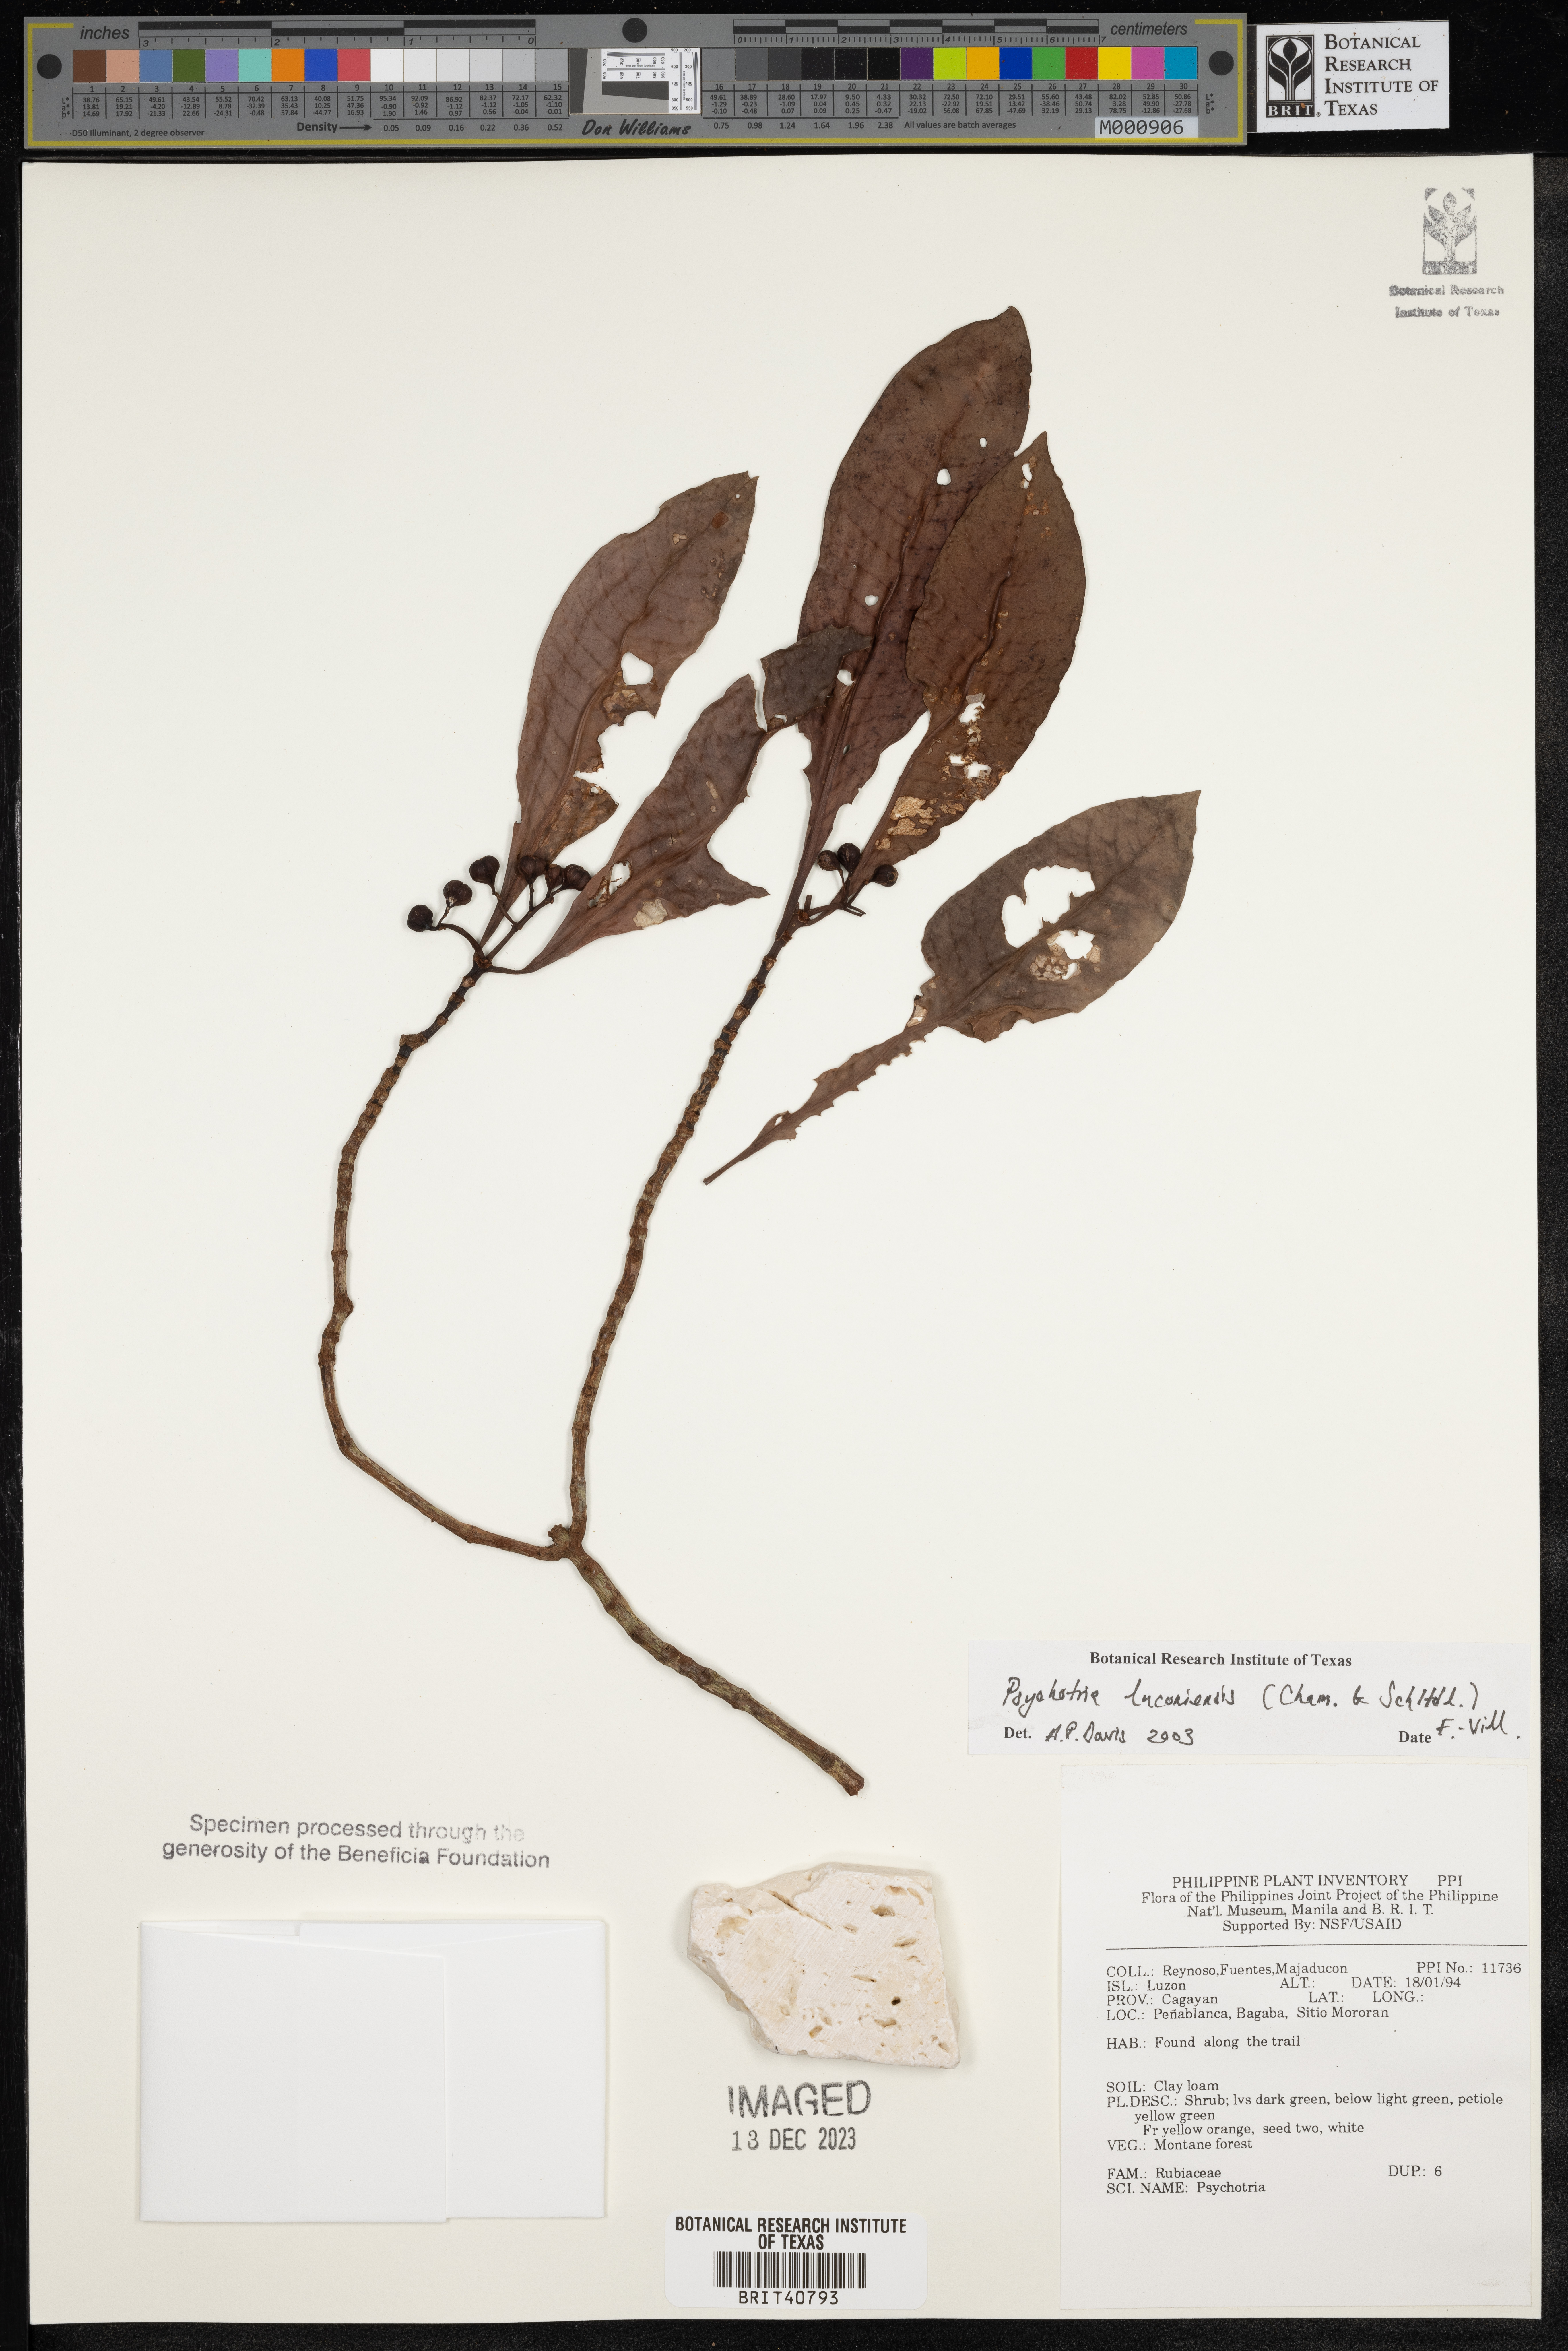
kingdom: Plantae
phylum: Tracheophyta
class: Magnoliopsida
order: Gentianales
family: Rubiaceae
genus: Psychotria
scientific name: Psychotria luzoniensis
